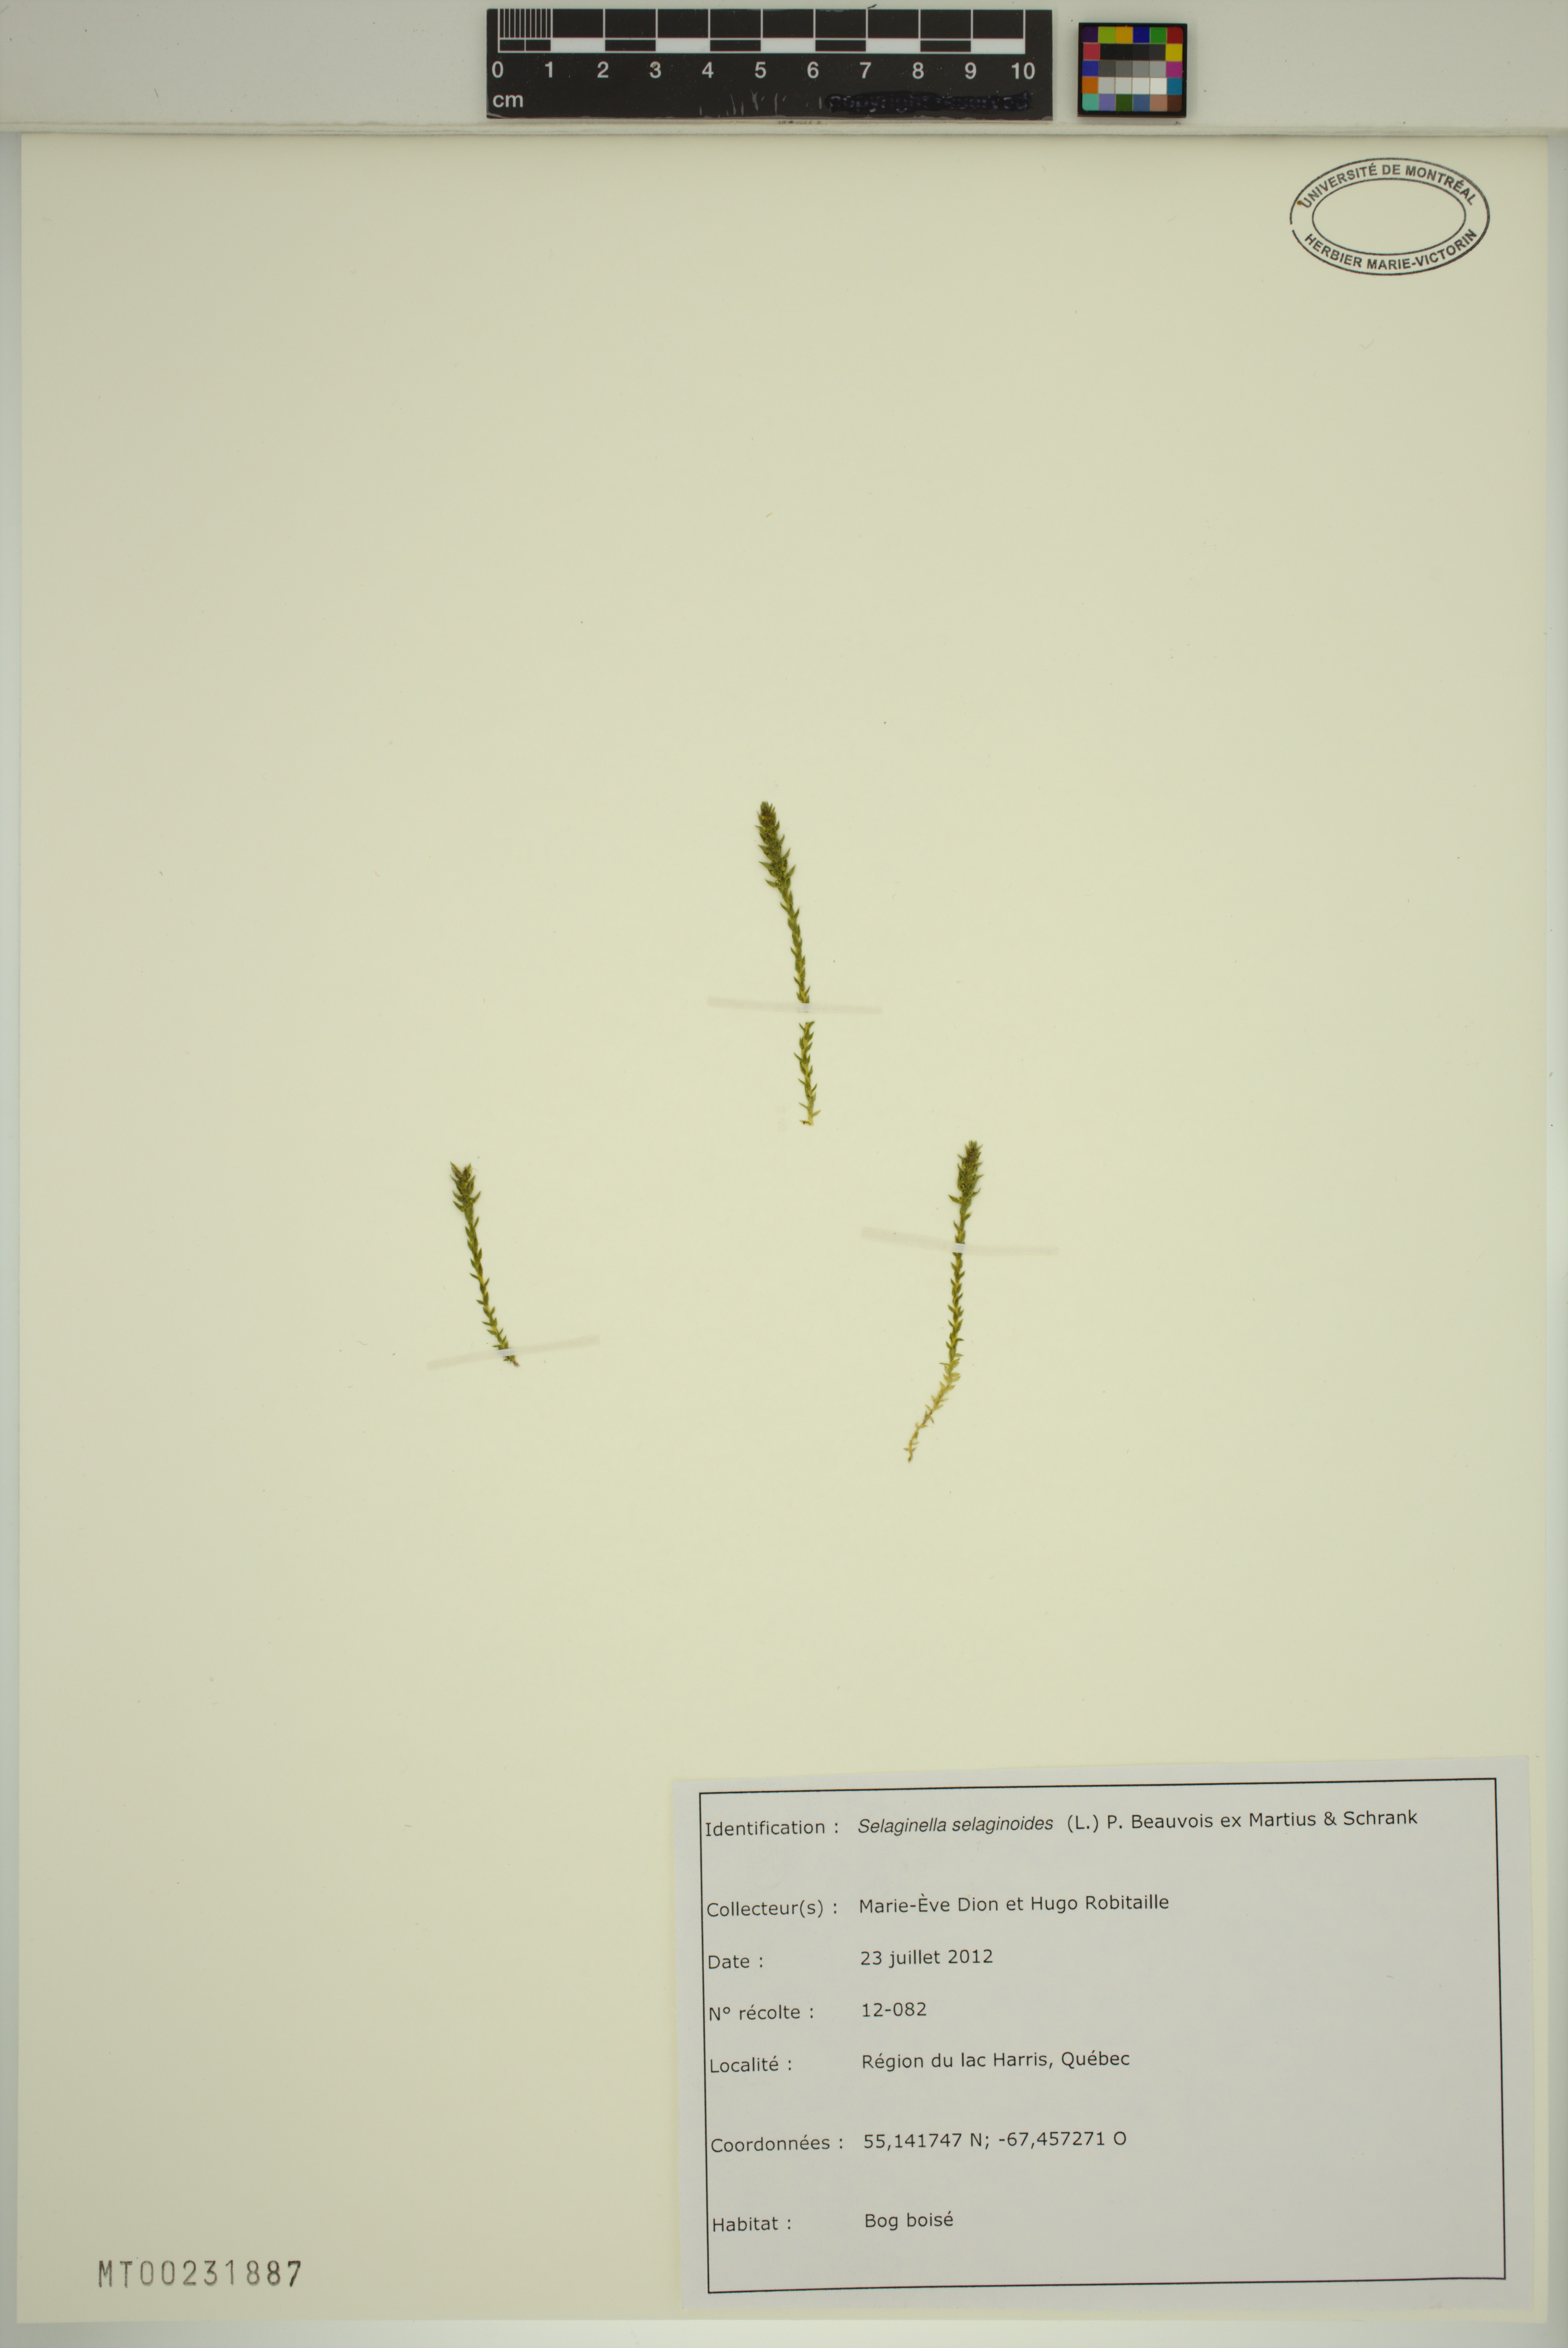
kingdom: Plantae
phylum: Tracheophyta
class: Lycopodiopsida
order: Selaginellales
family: Selaginellaceae
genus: Selaginella
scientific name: Selaginella selaginoides
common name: Prickly mountain-moss
